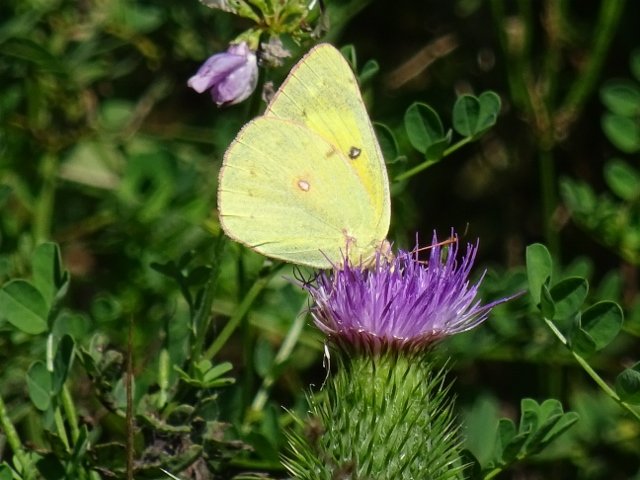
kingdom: Animalia
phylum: Arthropoda
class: Insecta
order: Lepidoptera
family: Pieridae
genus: Colias
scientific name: Colias philodice
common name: Clouded Sulphur
